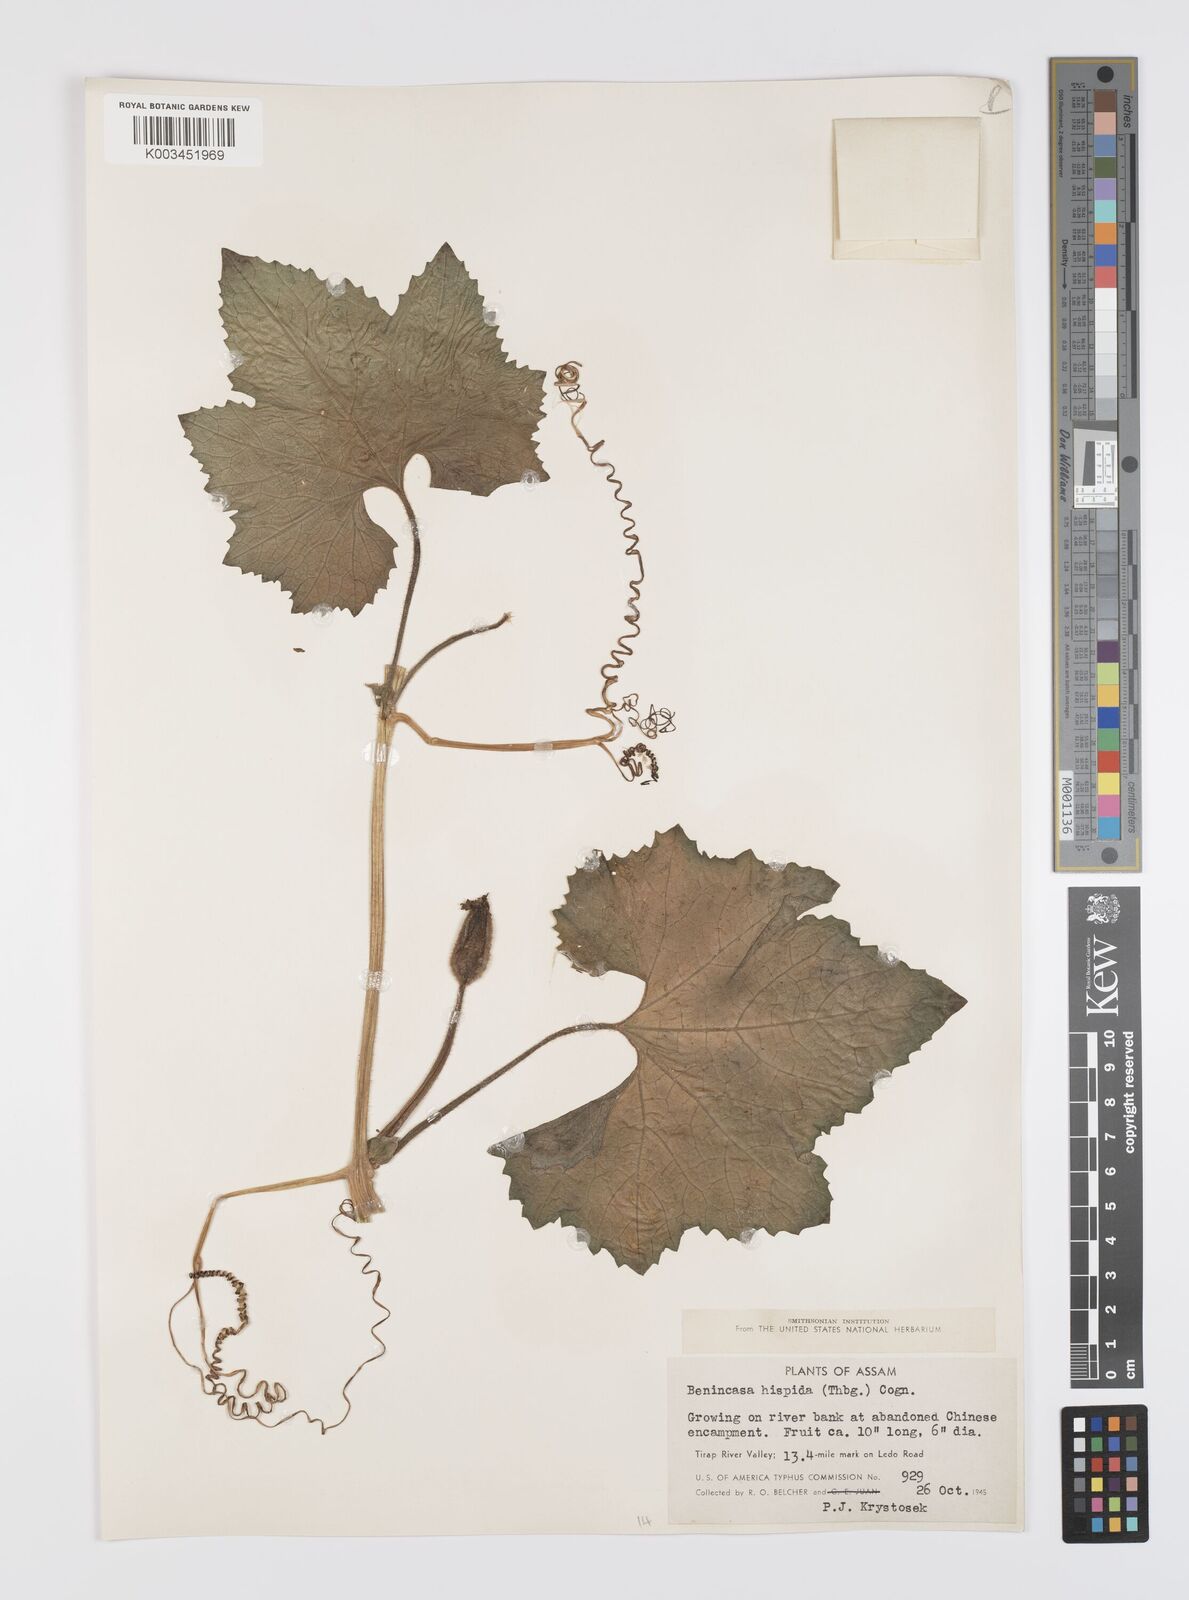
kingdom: Plantae
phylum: Tracheophyta
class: Magnoliopsida
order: Cucurbitales
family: Cucurbitaceae
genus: Benincasa
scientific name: Benincasa hispida
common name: Chinese-watermelon
